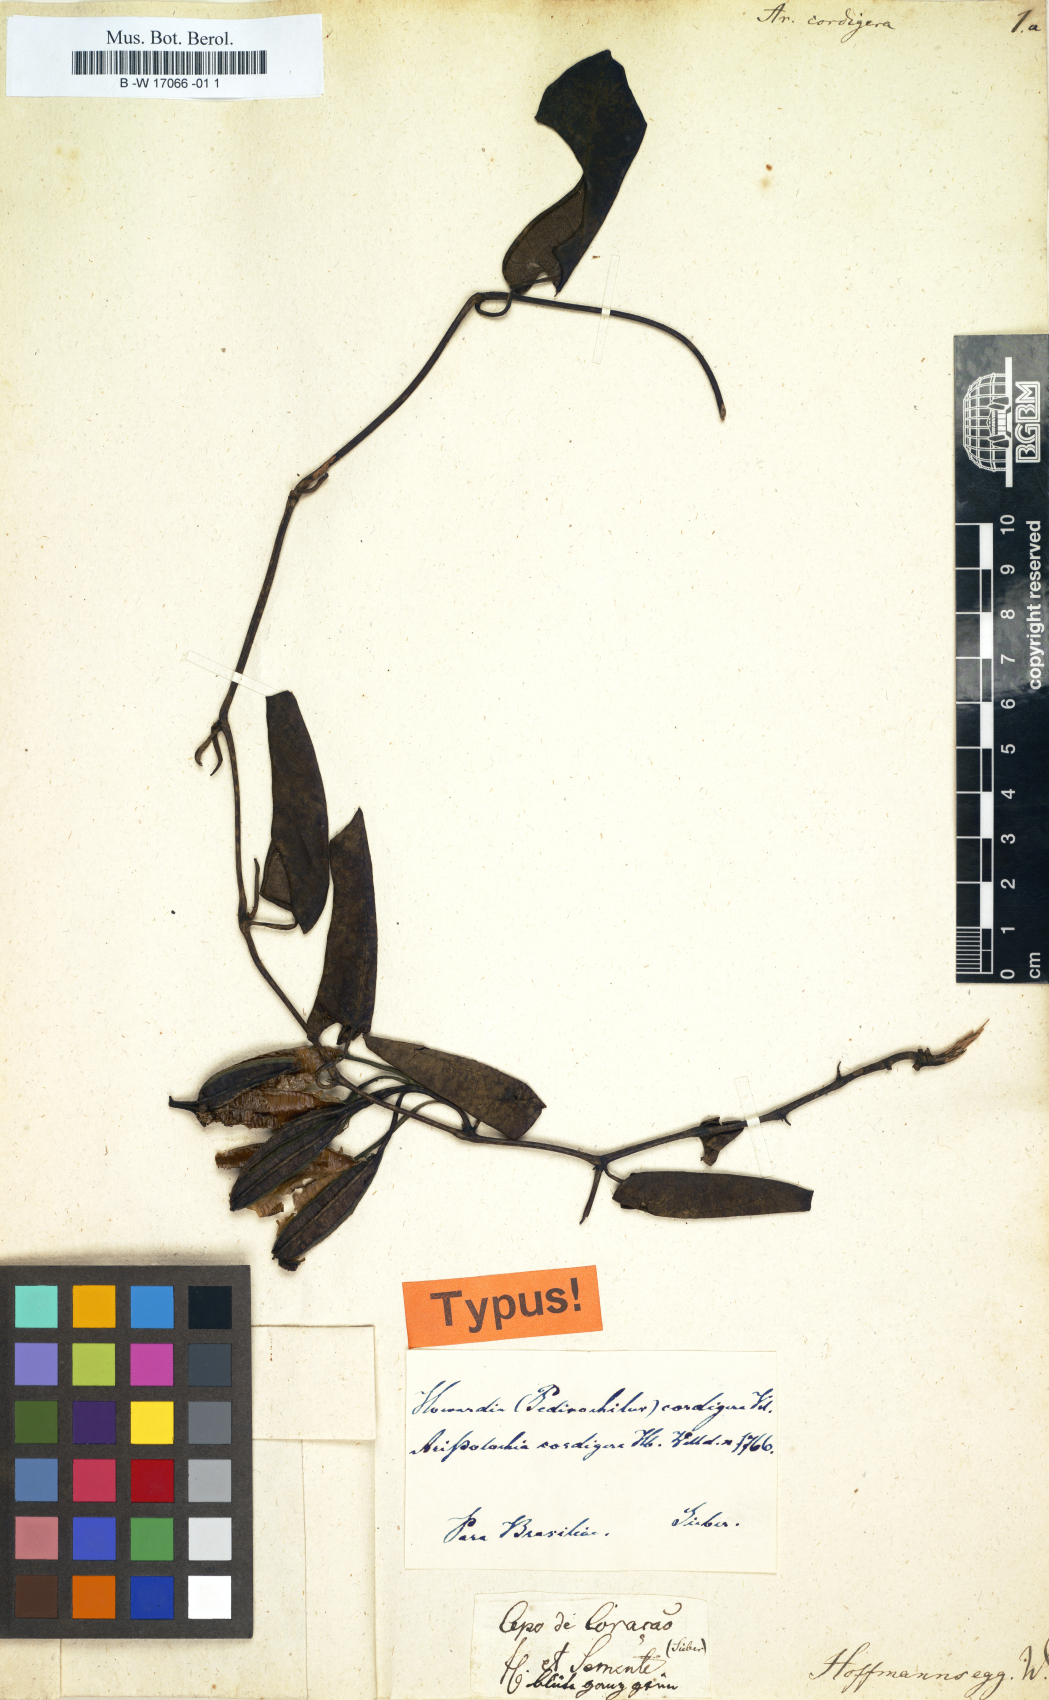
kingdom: Plantae
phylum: Tracheophyta
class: Magnoliopsida
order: Piperales
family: Aristolochiaceae
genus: Aristolochia
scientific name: Aristolochia cordigera
